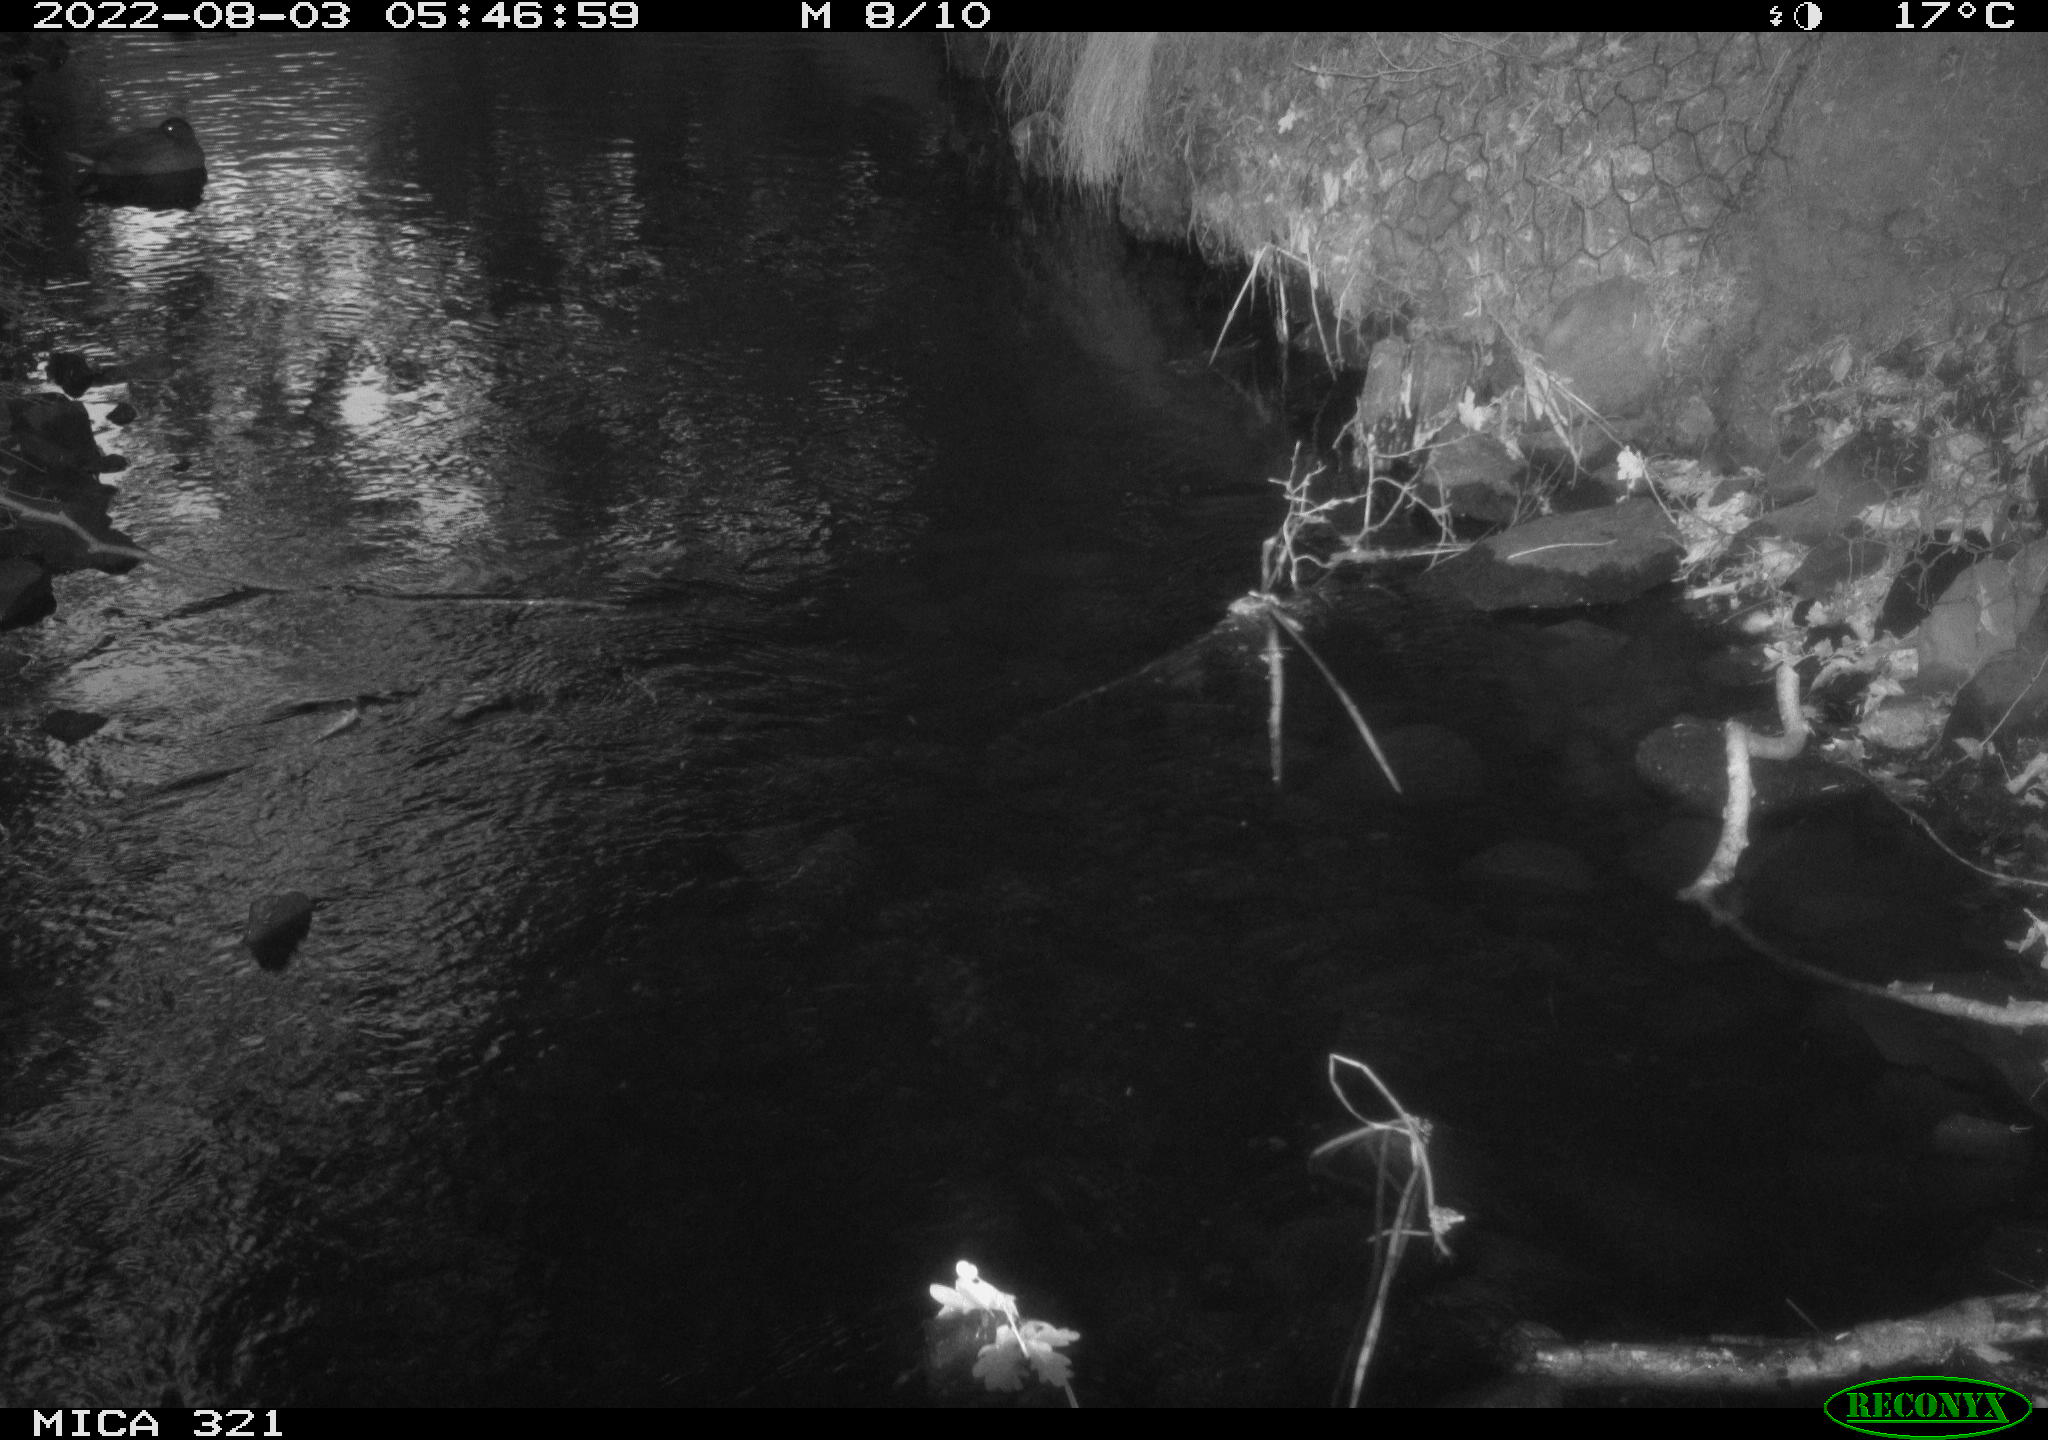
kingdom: Animalia
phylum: Chordata
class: Mammalia
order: Rodentia
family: Muridae
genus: Rattus
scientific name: Rattus norvegicus
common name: Brown rat
